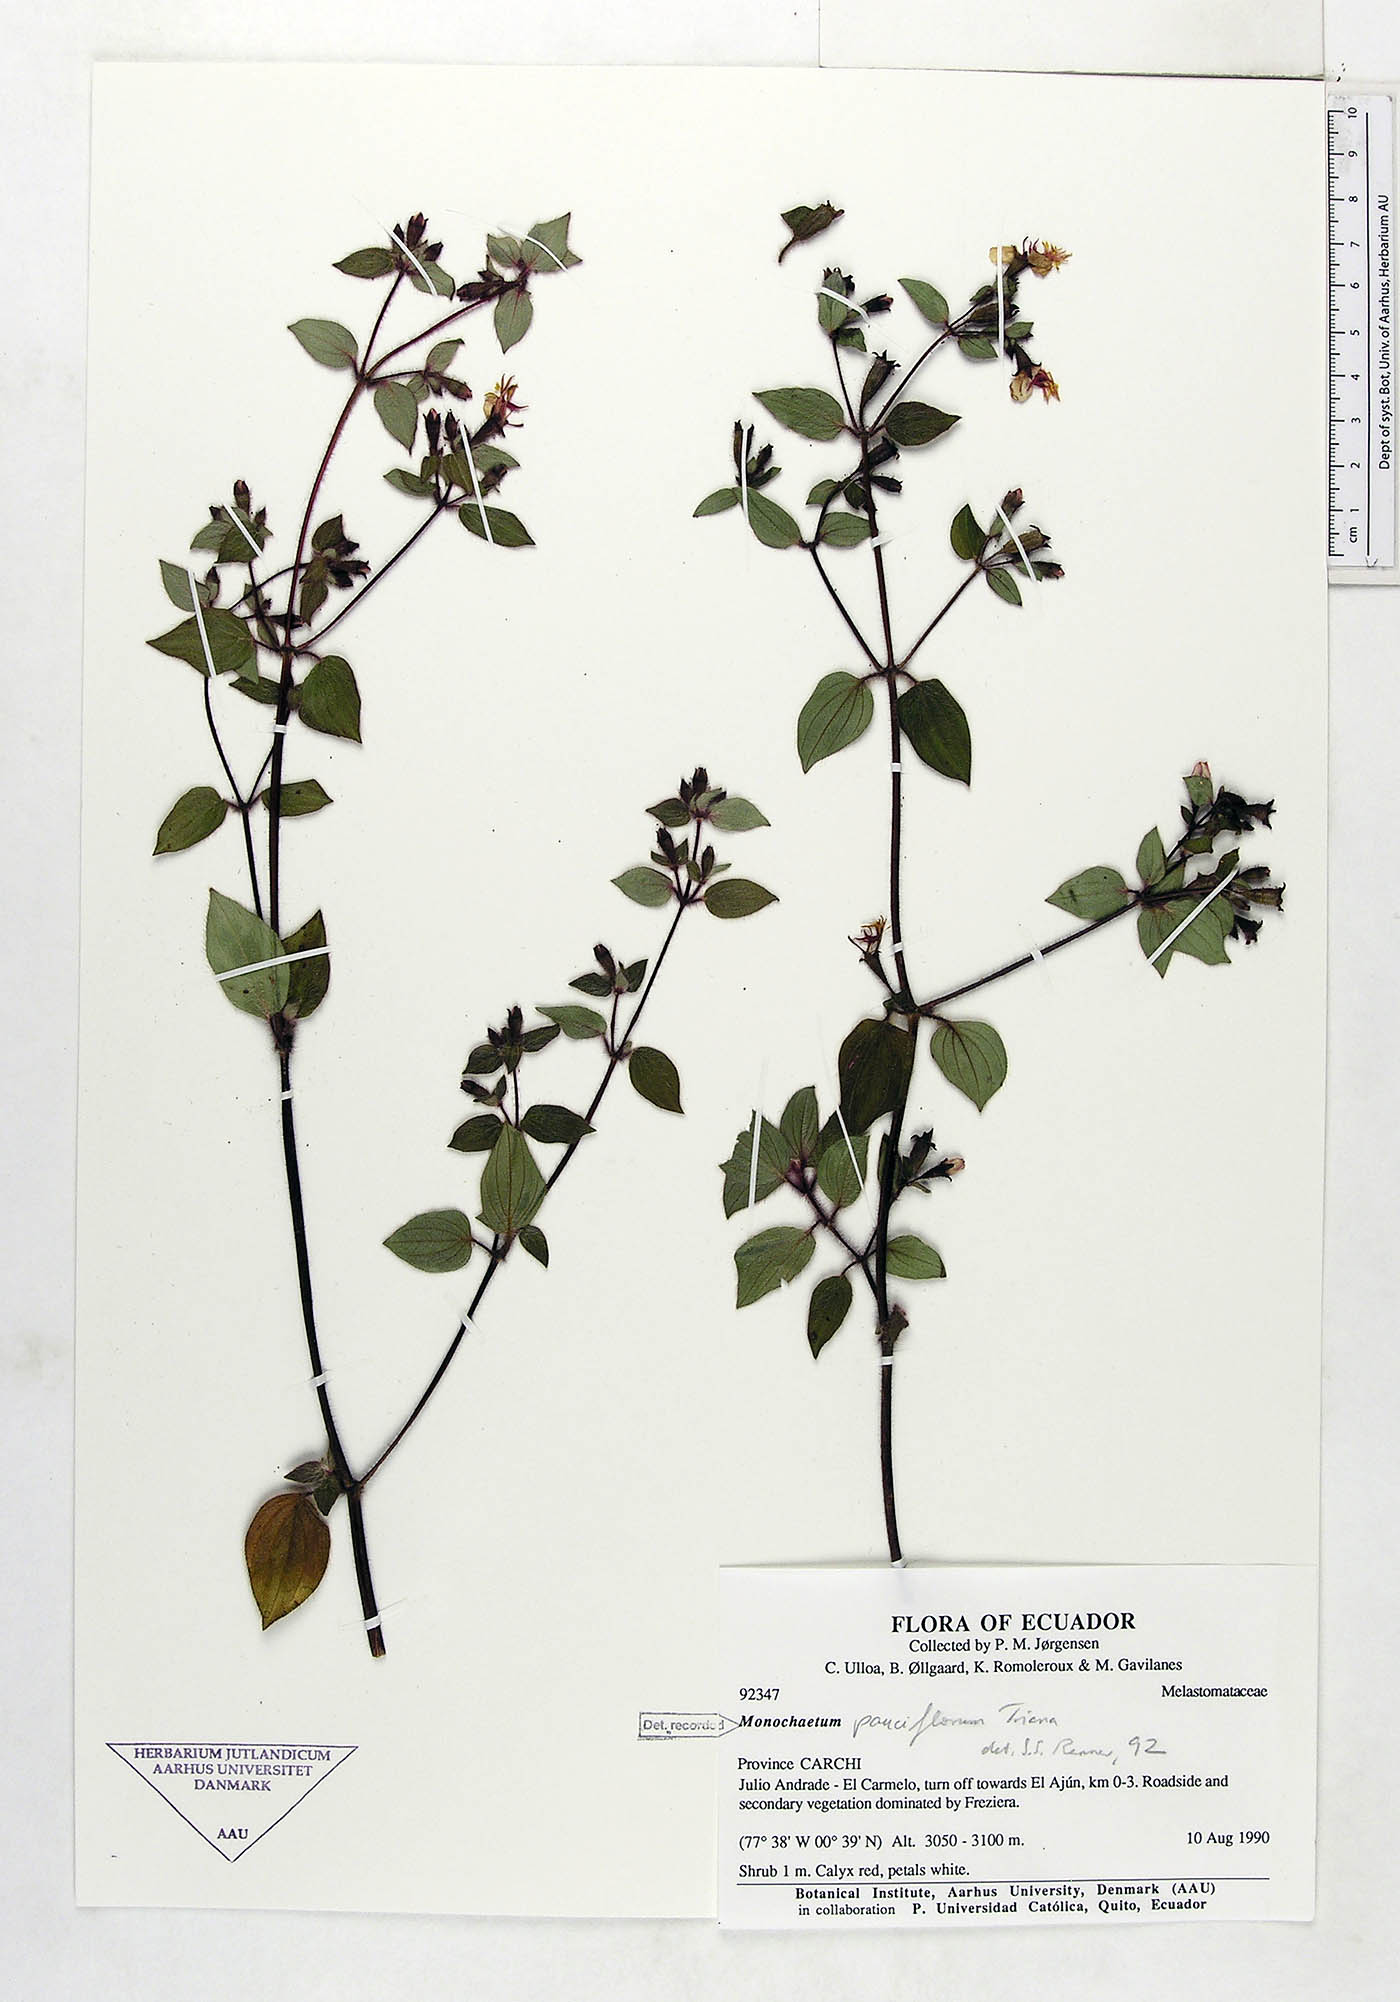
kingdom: Plantae
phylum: Tracheophyta
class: Magnoliopsida
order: Myrtales
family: Melastomataceae
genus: Monochaetum
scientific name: Monochaetum glanduliferum
